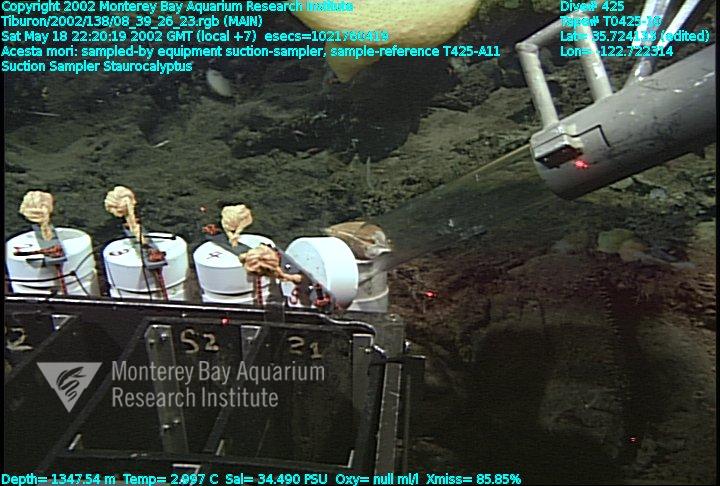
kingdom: Animalia
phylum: Porifera
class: Hexactinellida
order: Lyssacinosida
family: Rossellidae
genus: Staurocalyptus
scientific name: Staurocalyptus
